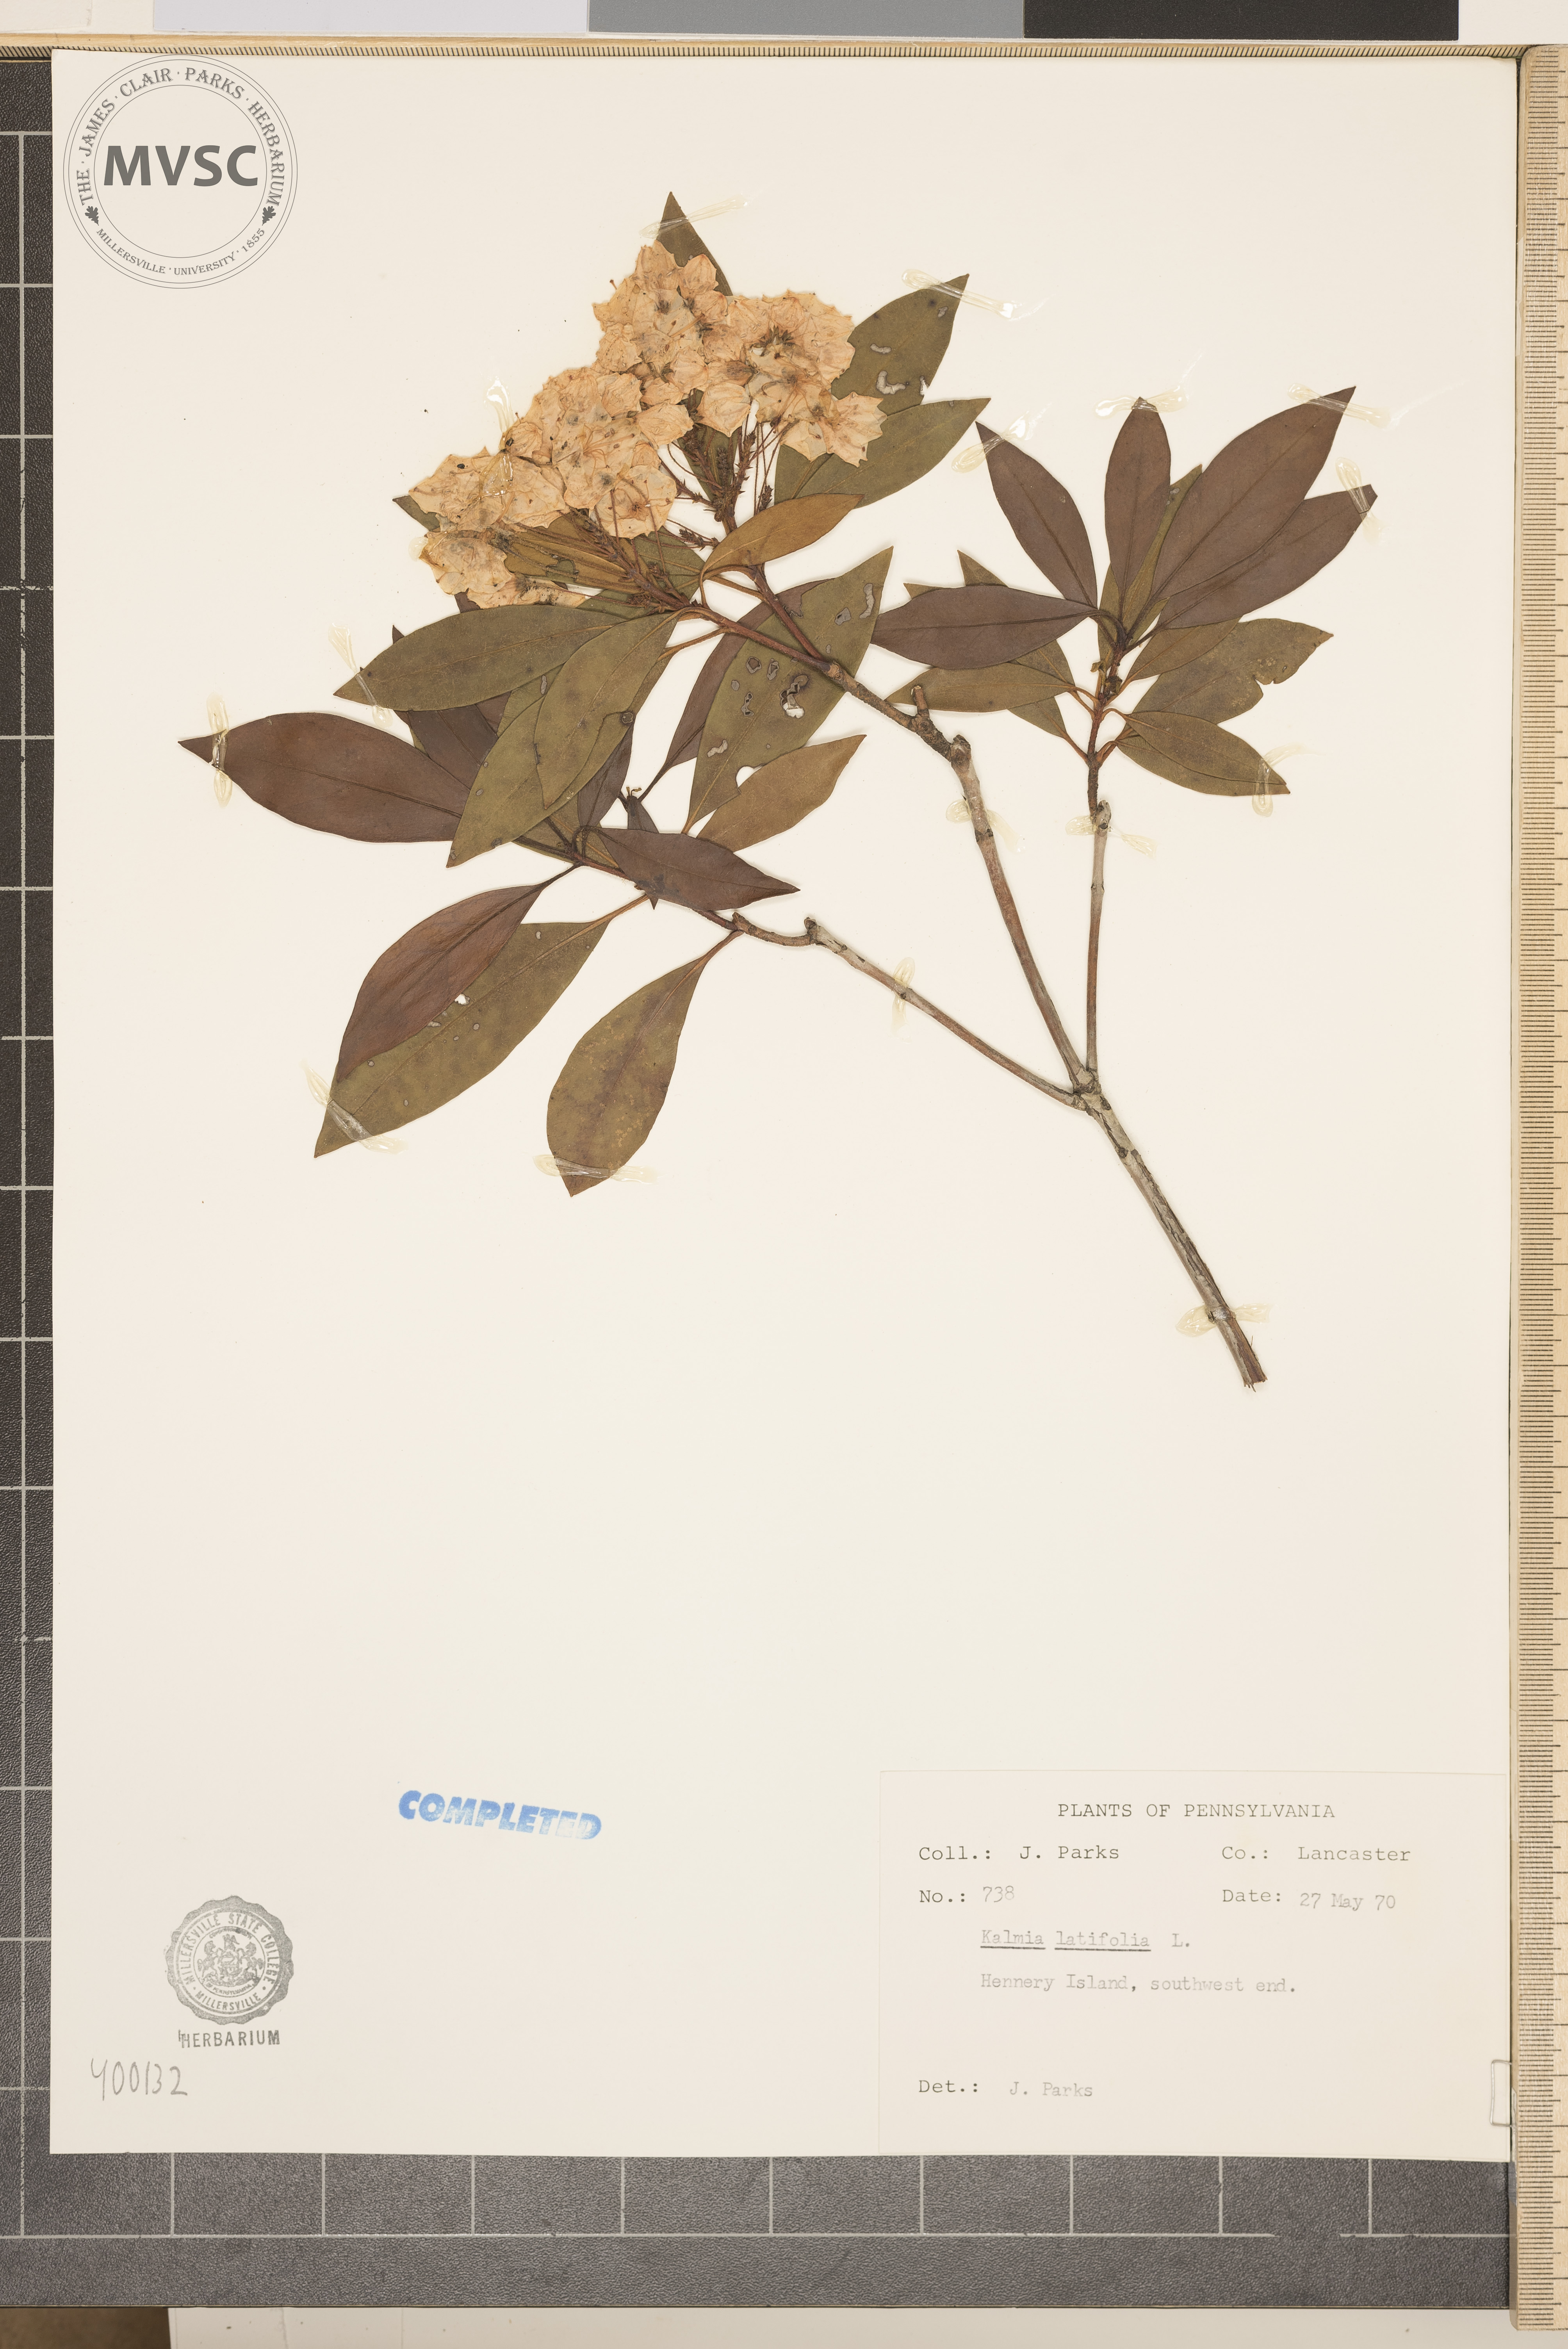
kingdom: Plantae
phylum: Tracheophyta
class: Magnoliopsida
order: Ericales
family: Ericaceae
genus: Kalmia
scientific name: Kalmia latifolia
